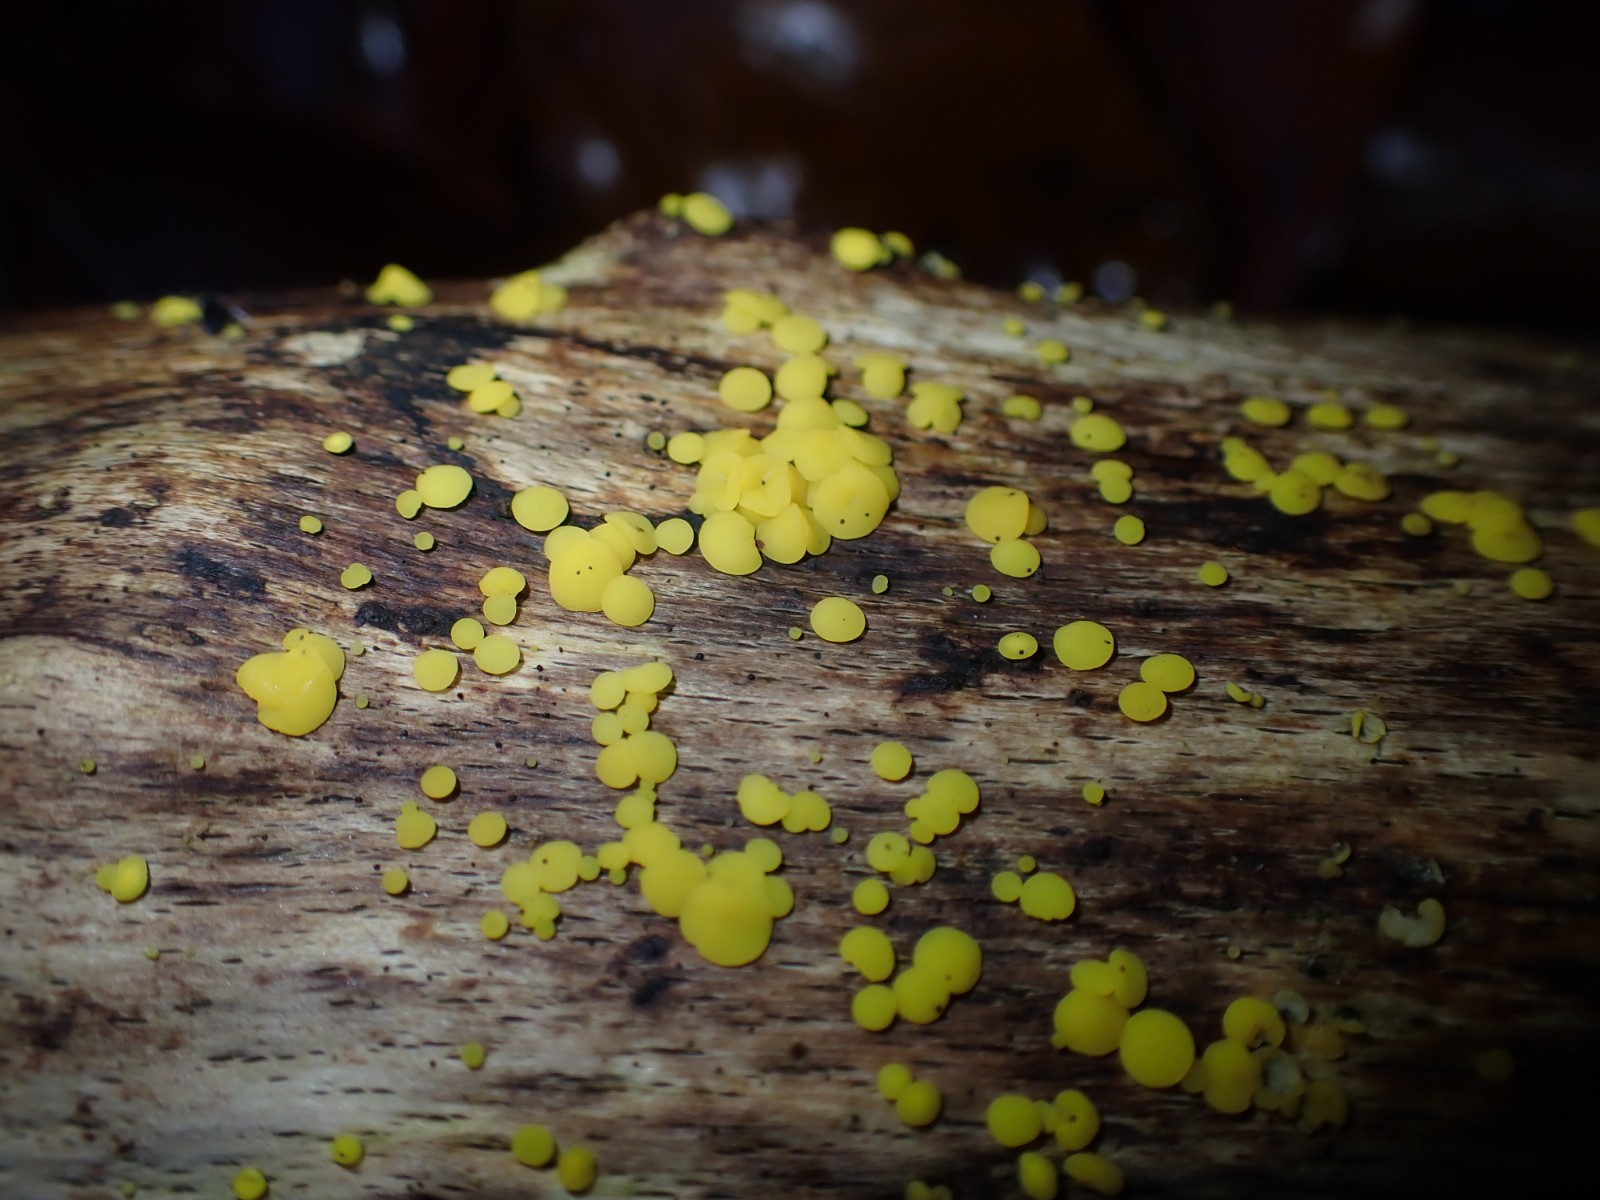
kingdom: Fungi
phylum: Ascomycota
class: Leotiomycetes
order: Helotiales
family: Pezizellaceae
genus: Calycina
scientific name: Calycina citrina
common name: almindelig gulskive
